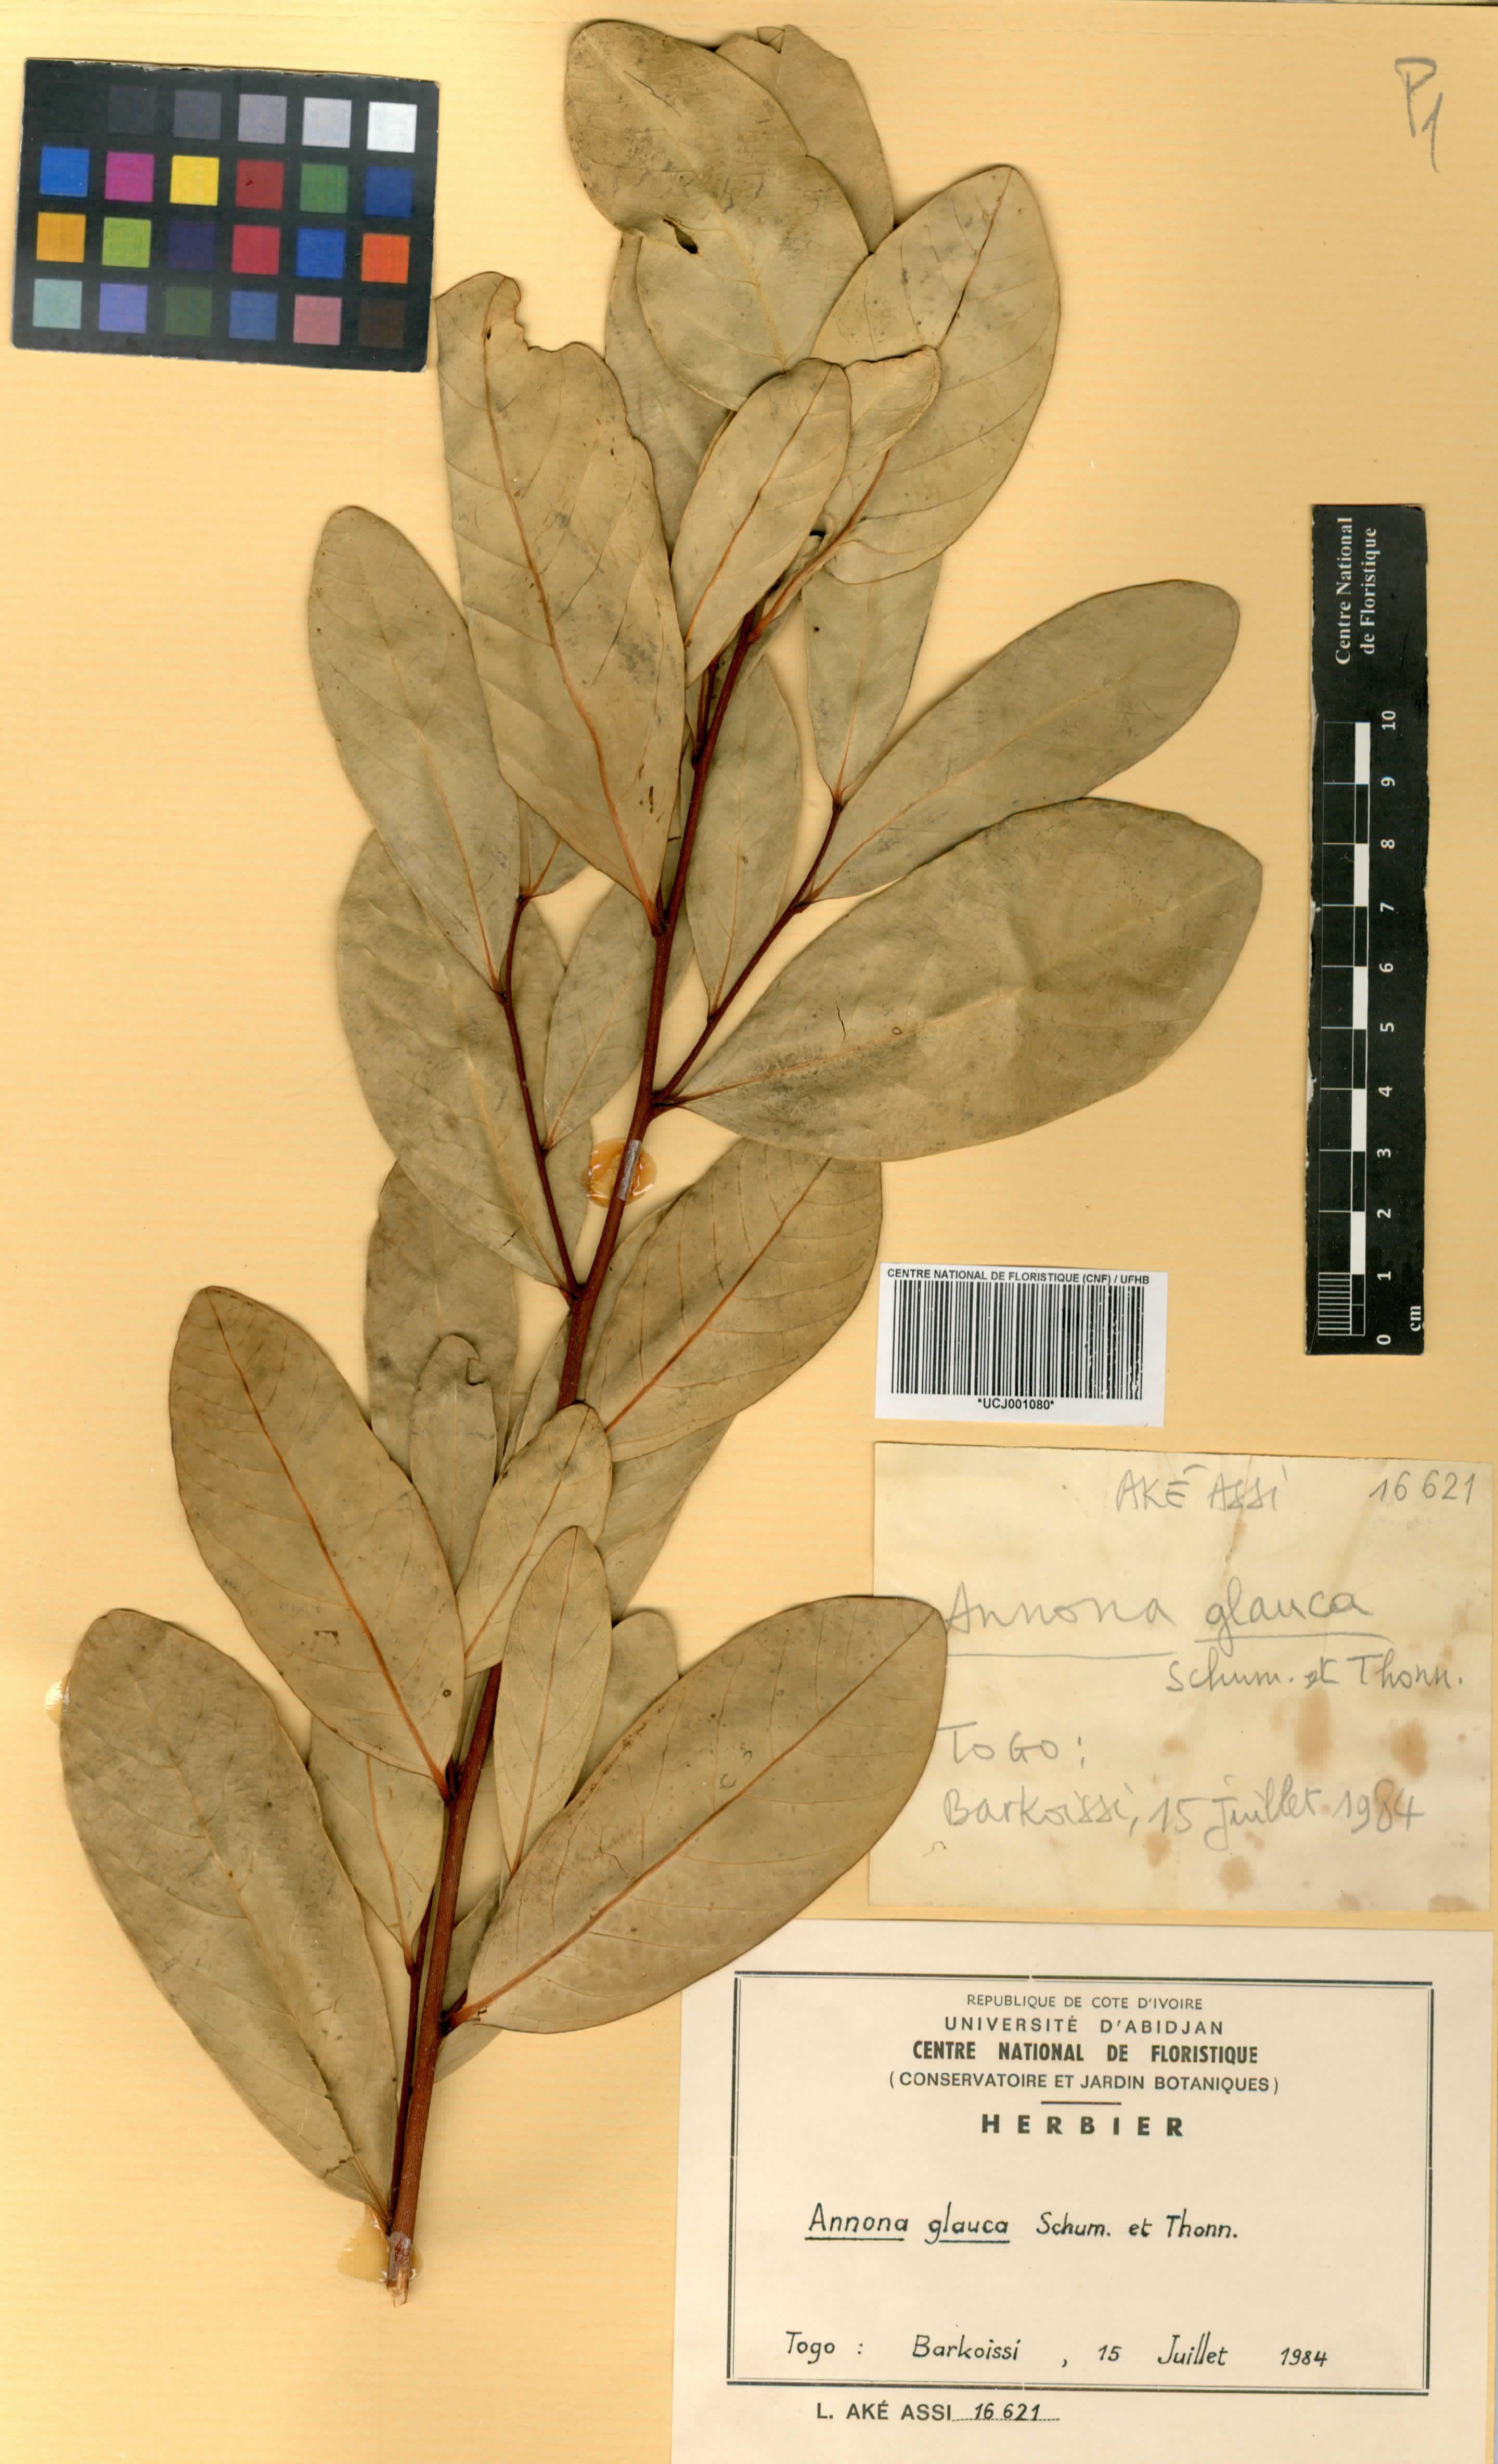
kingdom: Plantae
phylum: Tracheophyta
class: Magnoliopsida
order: Magnoliales
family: Annonaceae
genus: Annona
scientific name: Annona glauca
